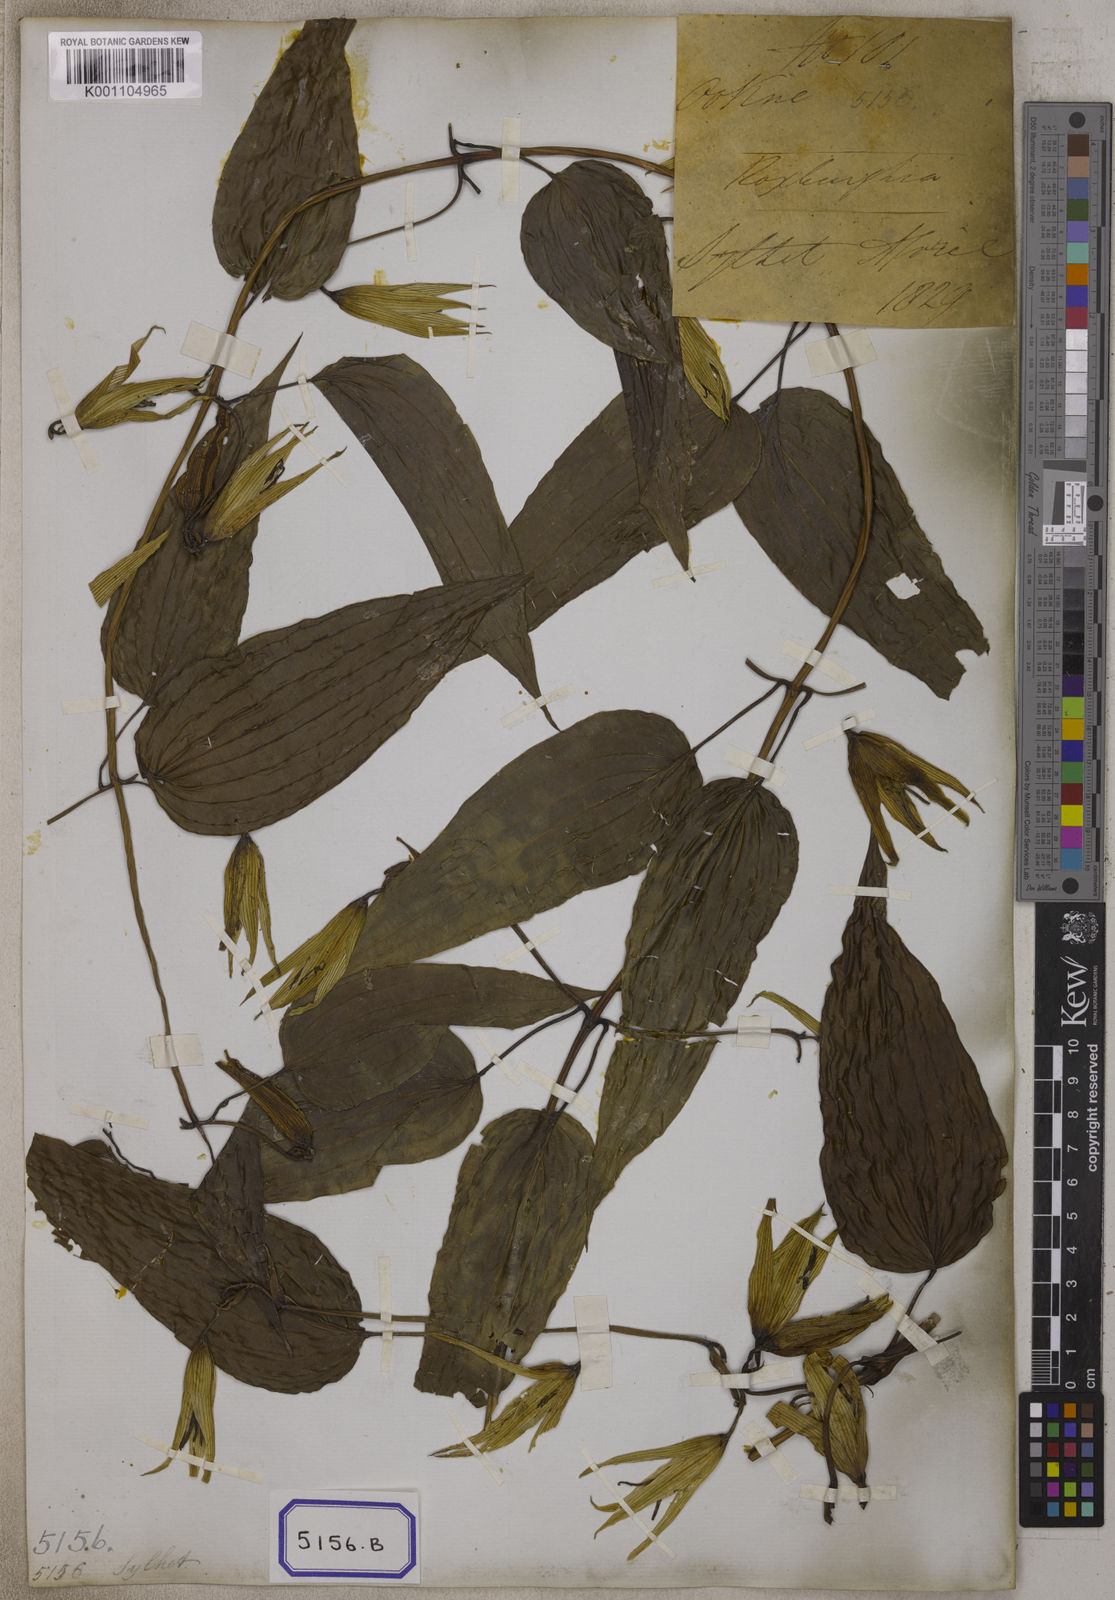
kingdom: Plantae
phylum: Tracheophyta
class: Liliopsida
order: Pandanales
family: Stemonaceae
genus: Stemona
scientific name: Stemona tuberosa
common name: Stemona
